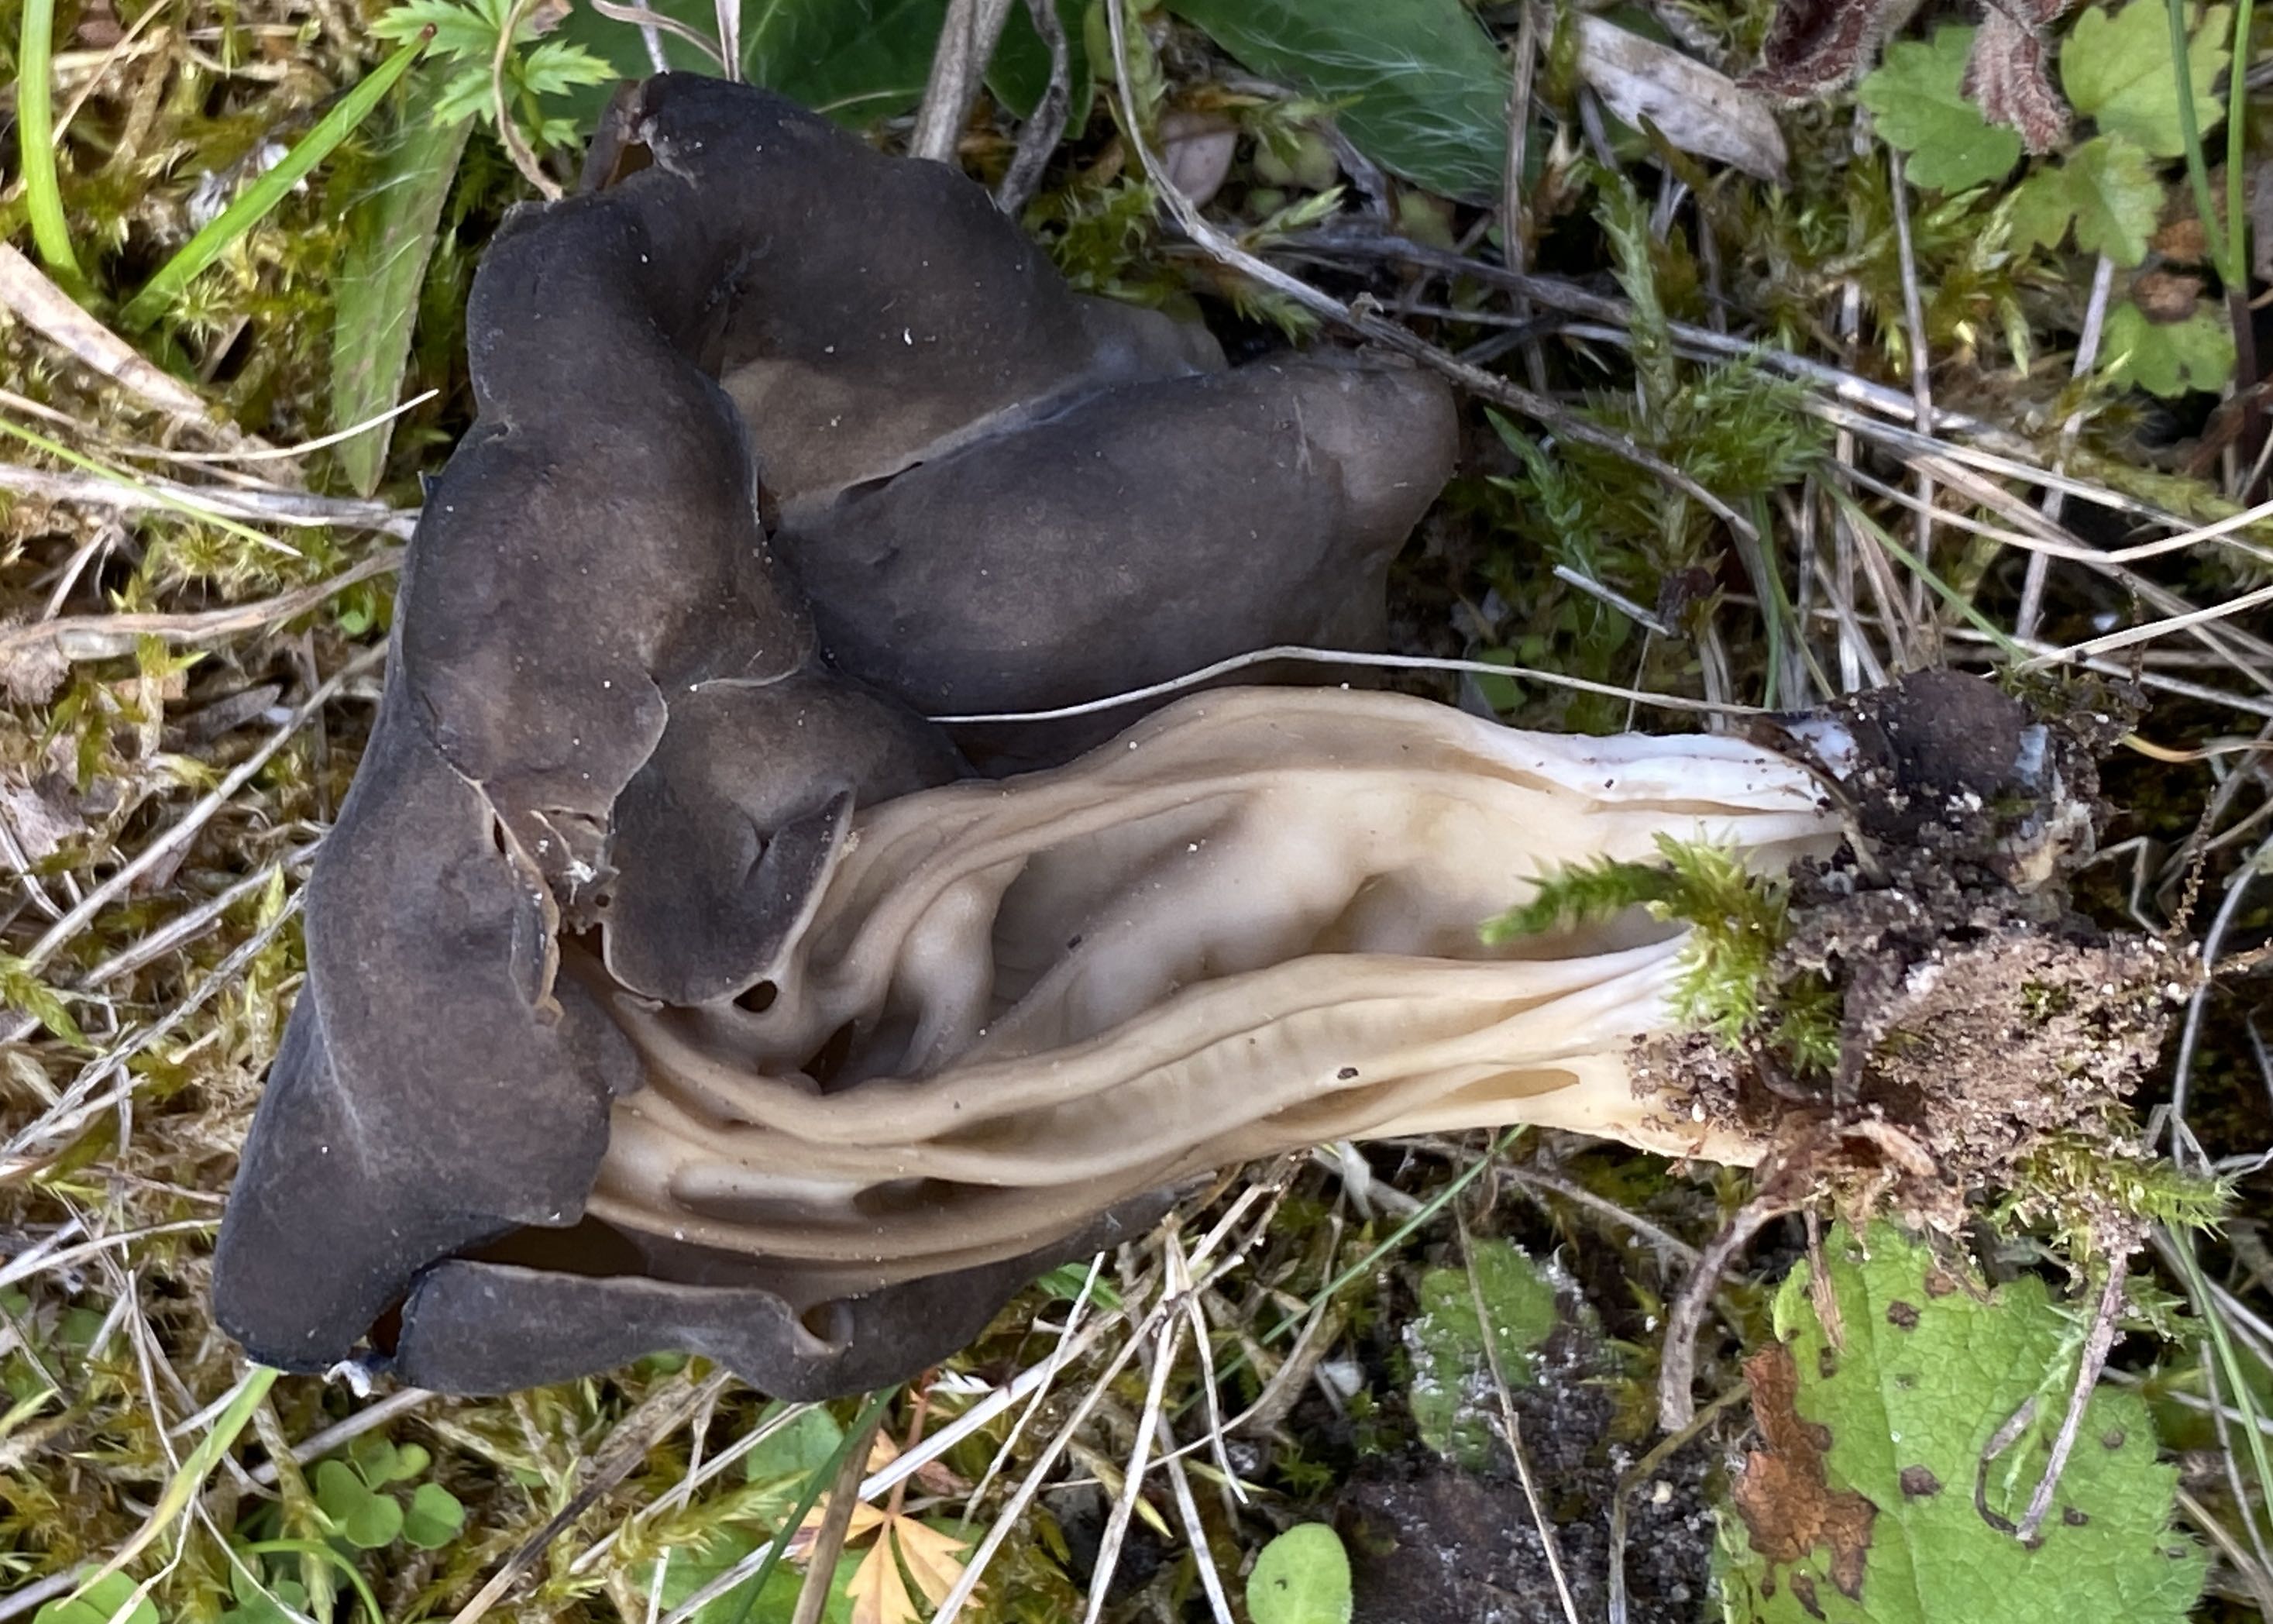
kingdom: Fungi
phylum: Ascomycota
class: Pezizomycetes
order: Pezizales
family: Helvellaceae
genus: Helvella
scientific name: Helvella lacunosa
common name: grubet foldhat
